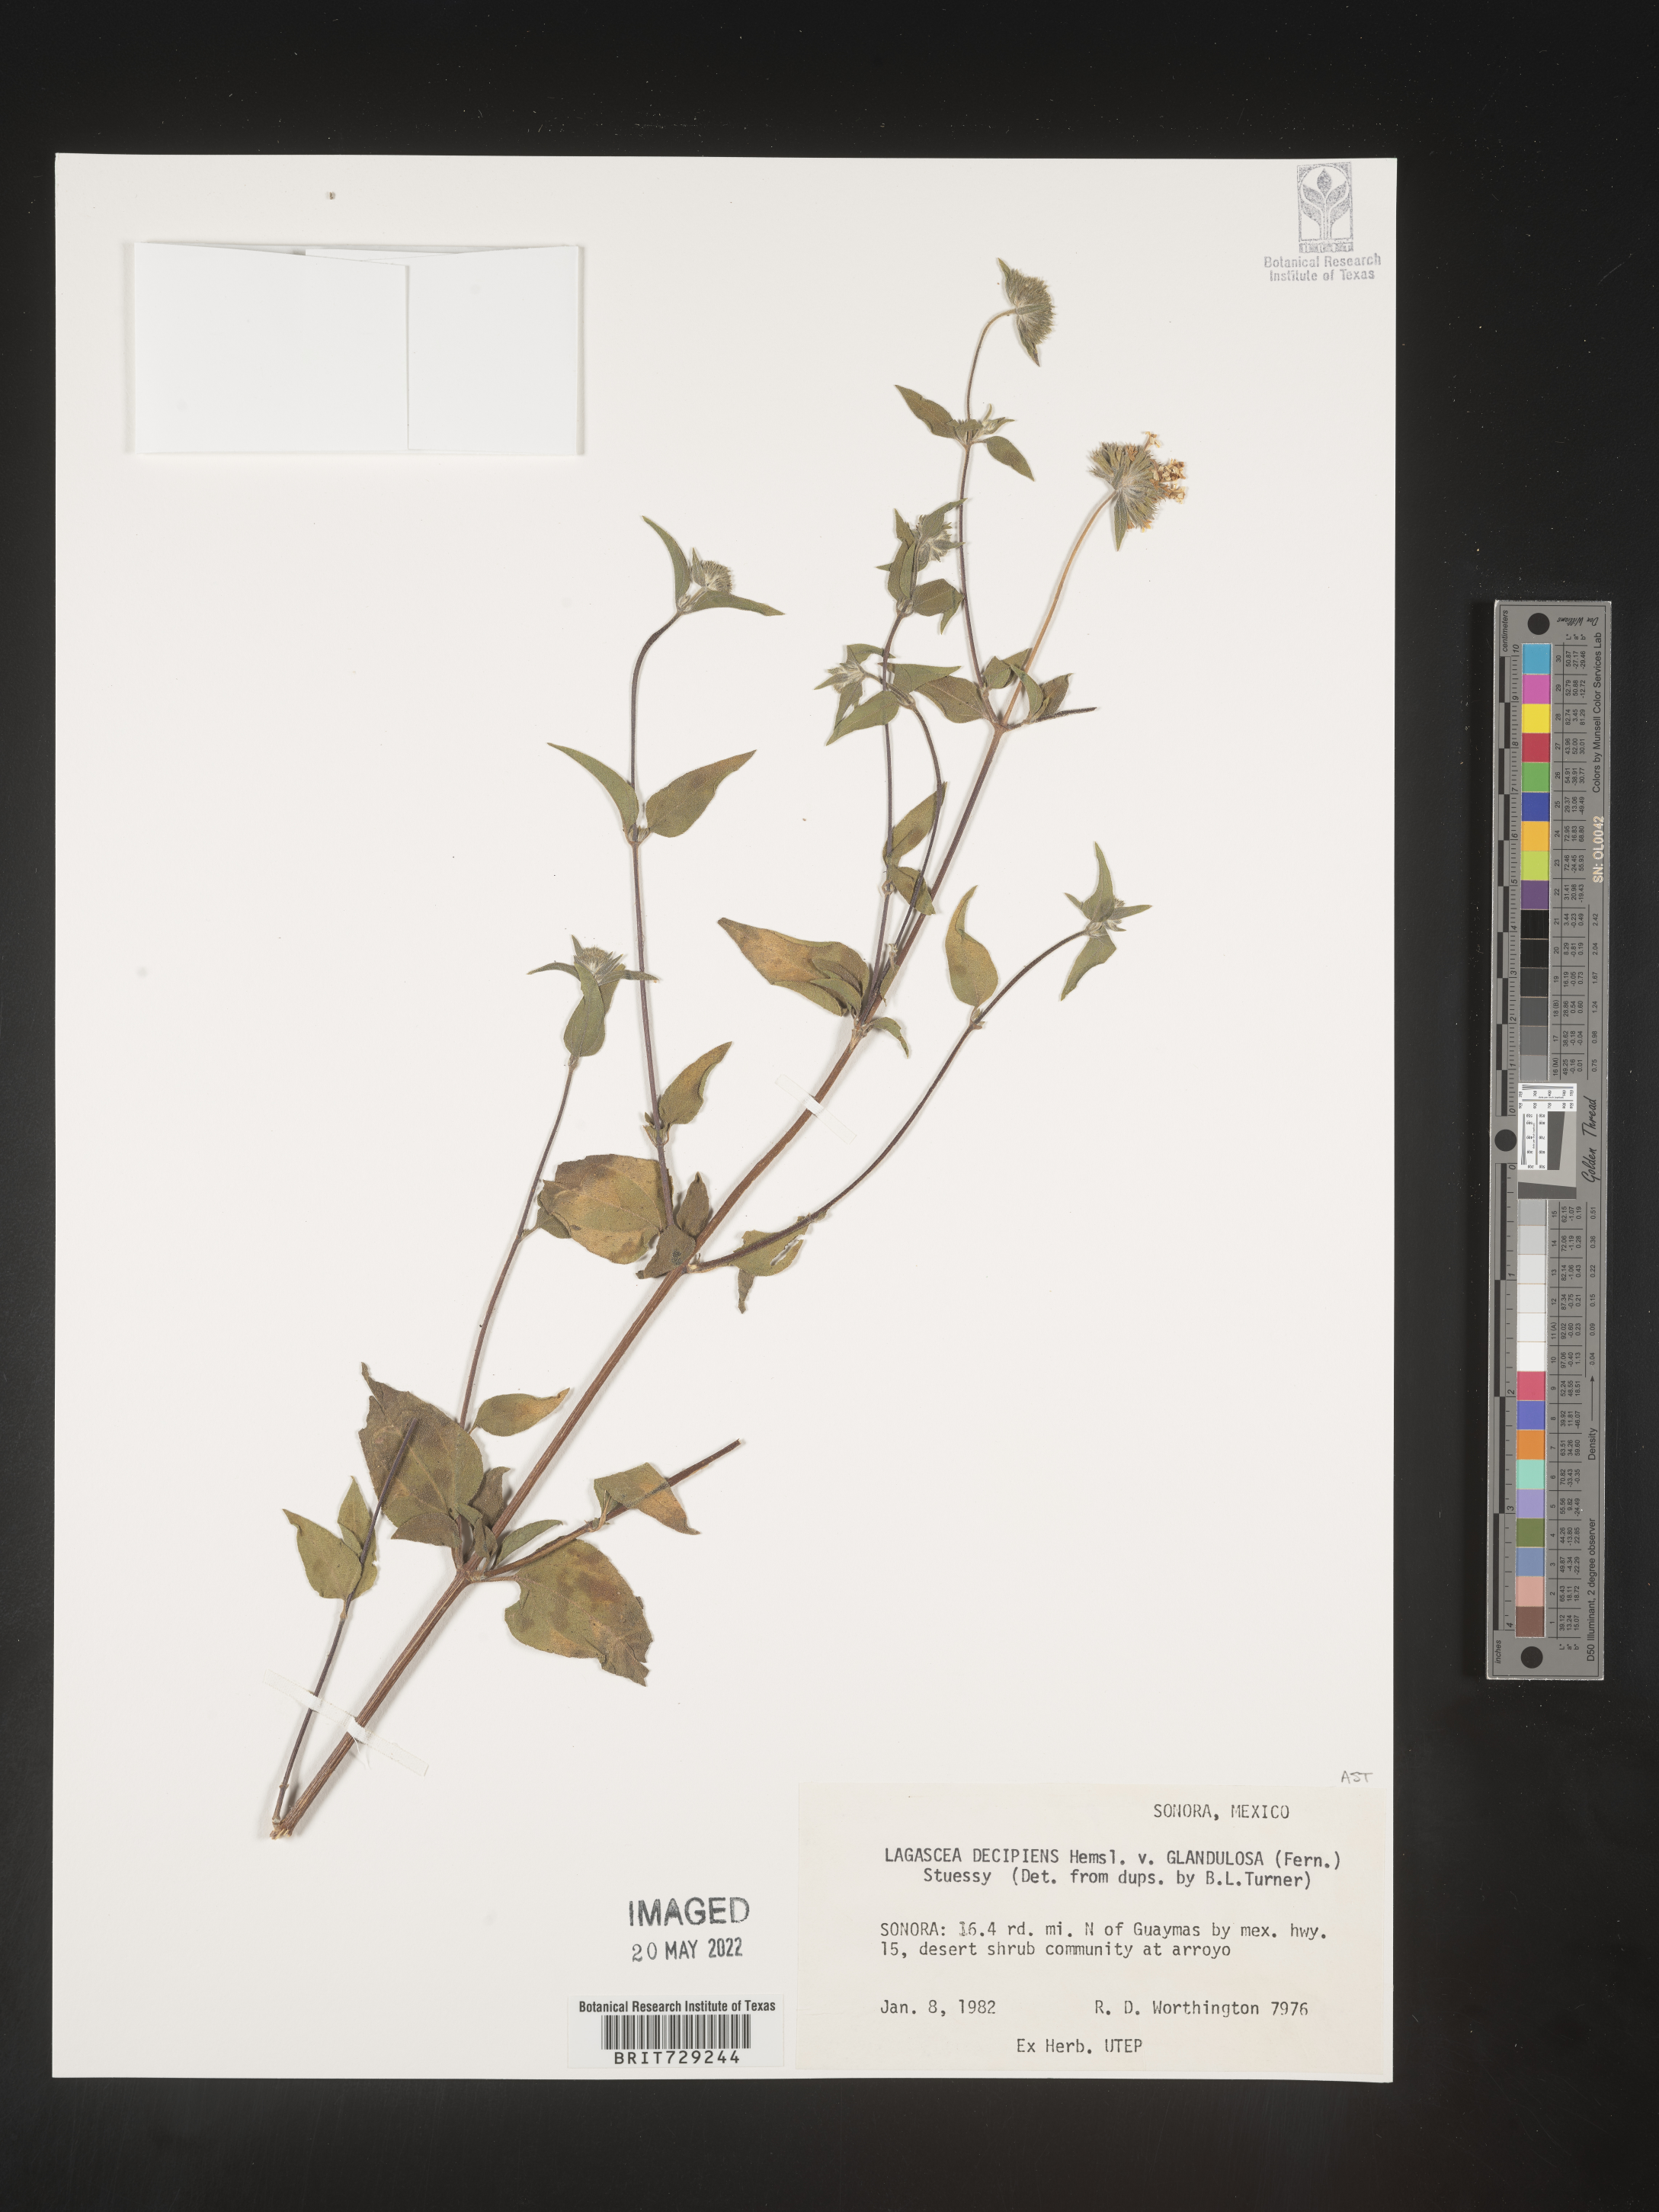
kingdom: Plantae
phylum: Tracheophyta
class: Magnoliopsida
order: Asterales
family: Asteraceae
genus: Lagascea
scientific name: Lagascea
